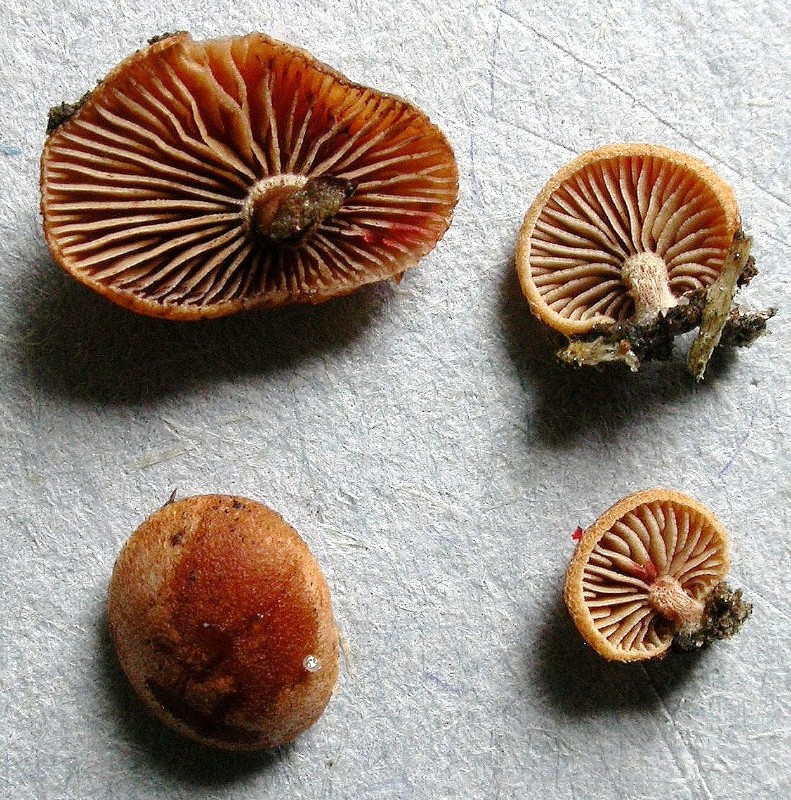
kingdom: Fungi
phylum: Basidiomycota
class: Agaricomycetes
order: Agaricales
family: Strophariaceae
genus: Deconica
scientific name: Deconica horizontalis
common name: ved-stråhat
